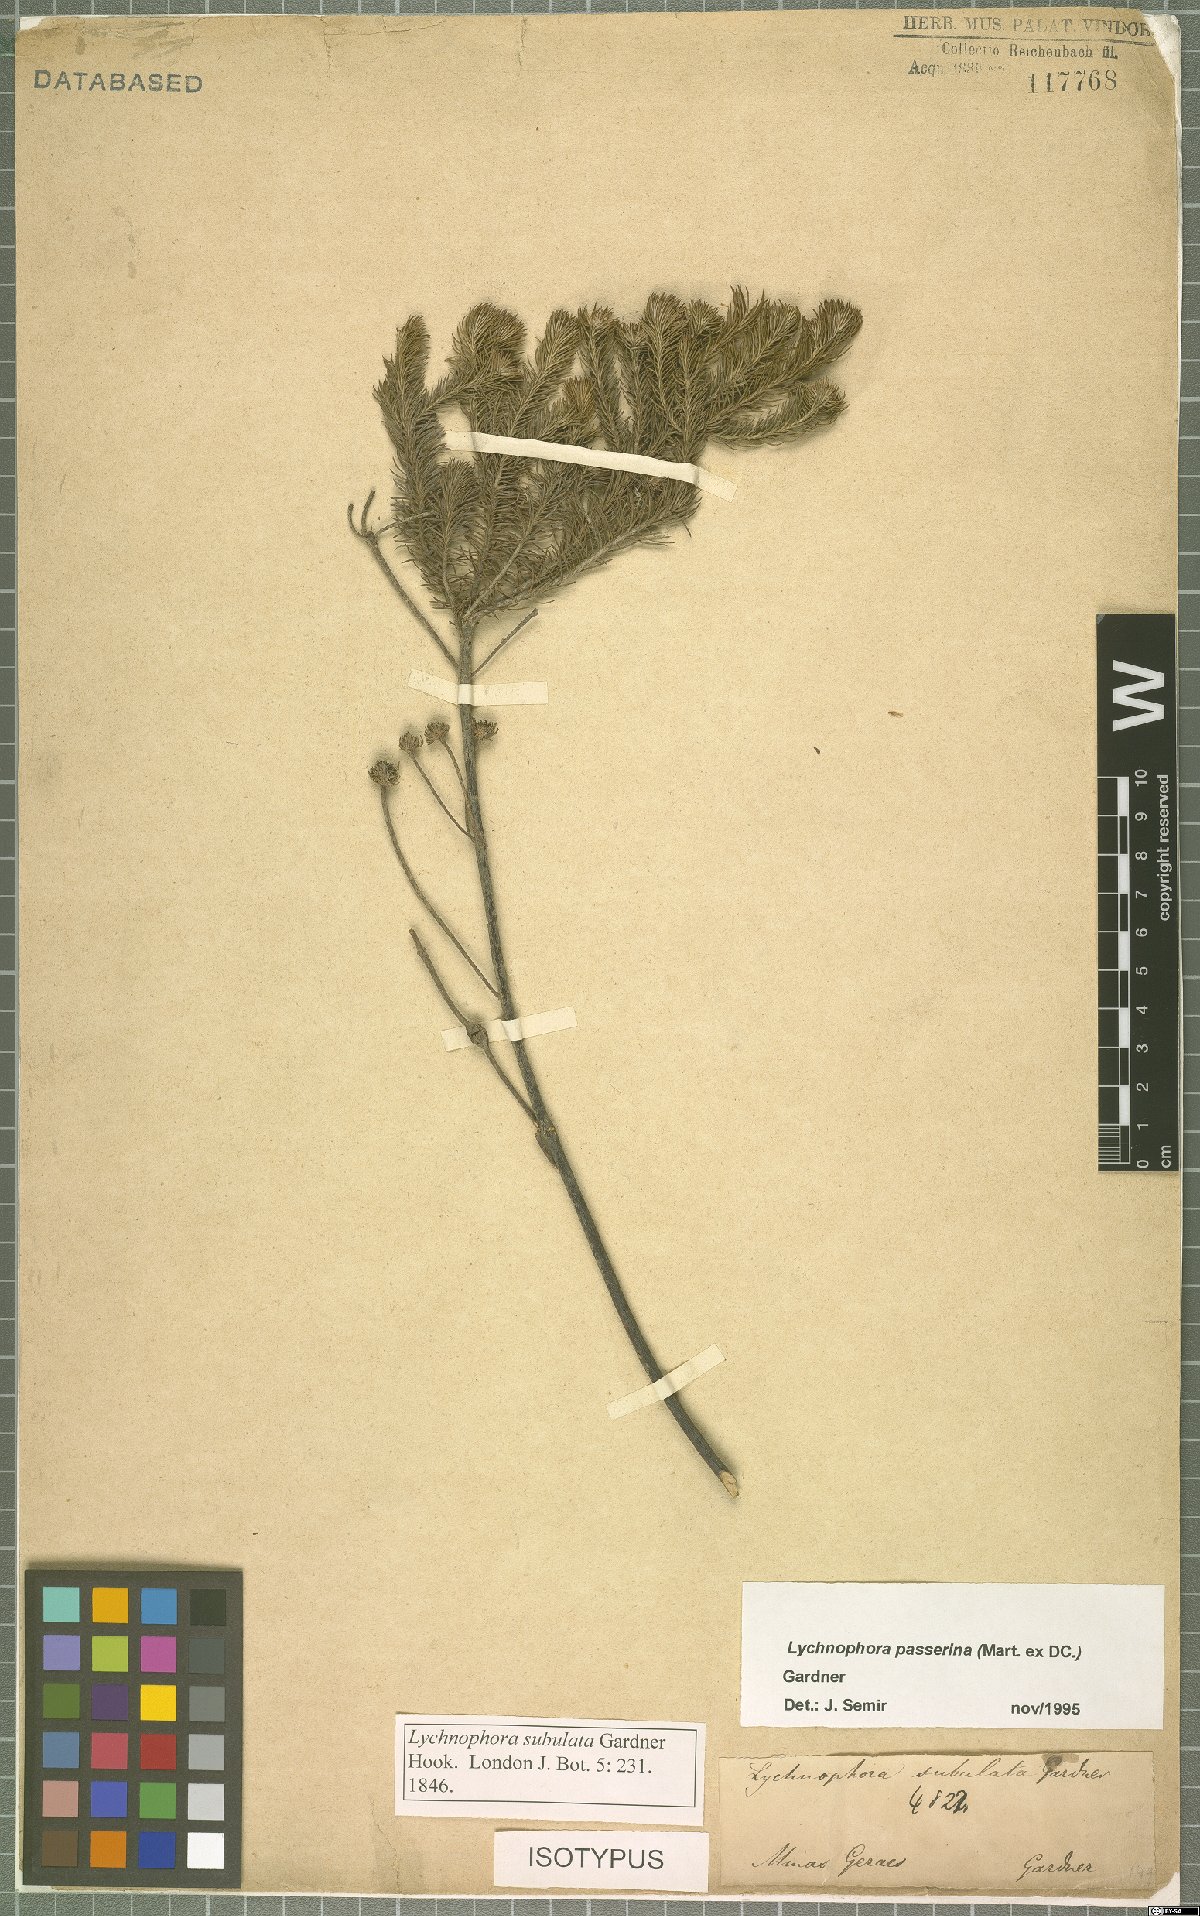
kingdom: Plantae
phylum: Tracheophyta
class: Magnoliopsida
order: Asterales
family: Asteraceae
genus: Lychnophora
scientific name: Lychnophora passerina
